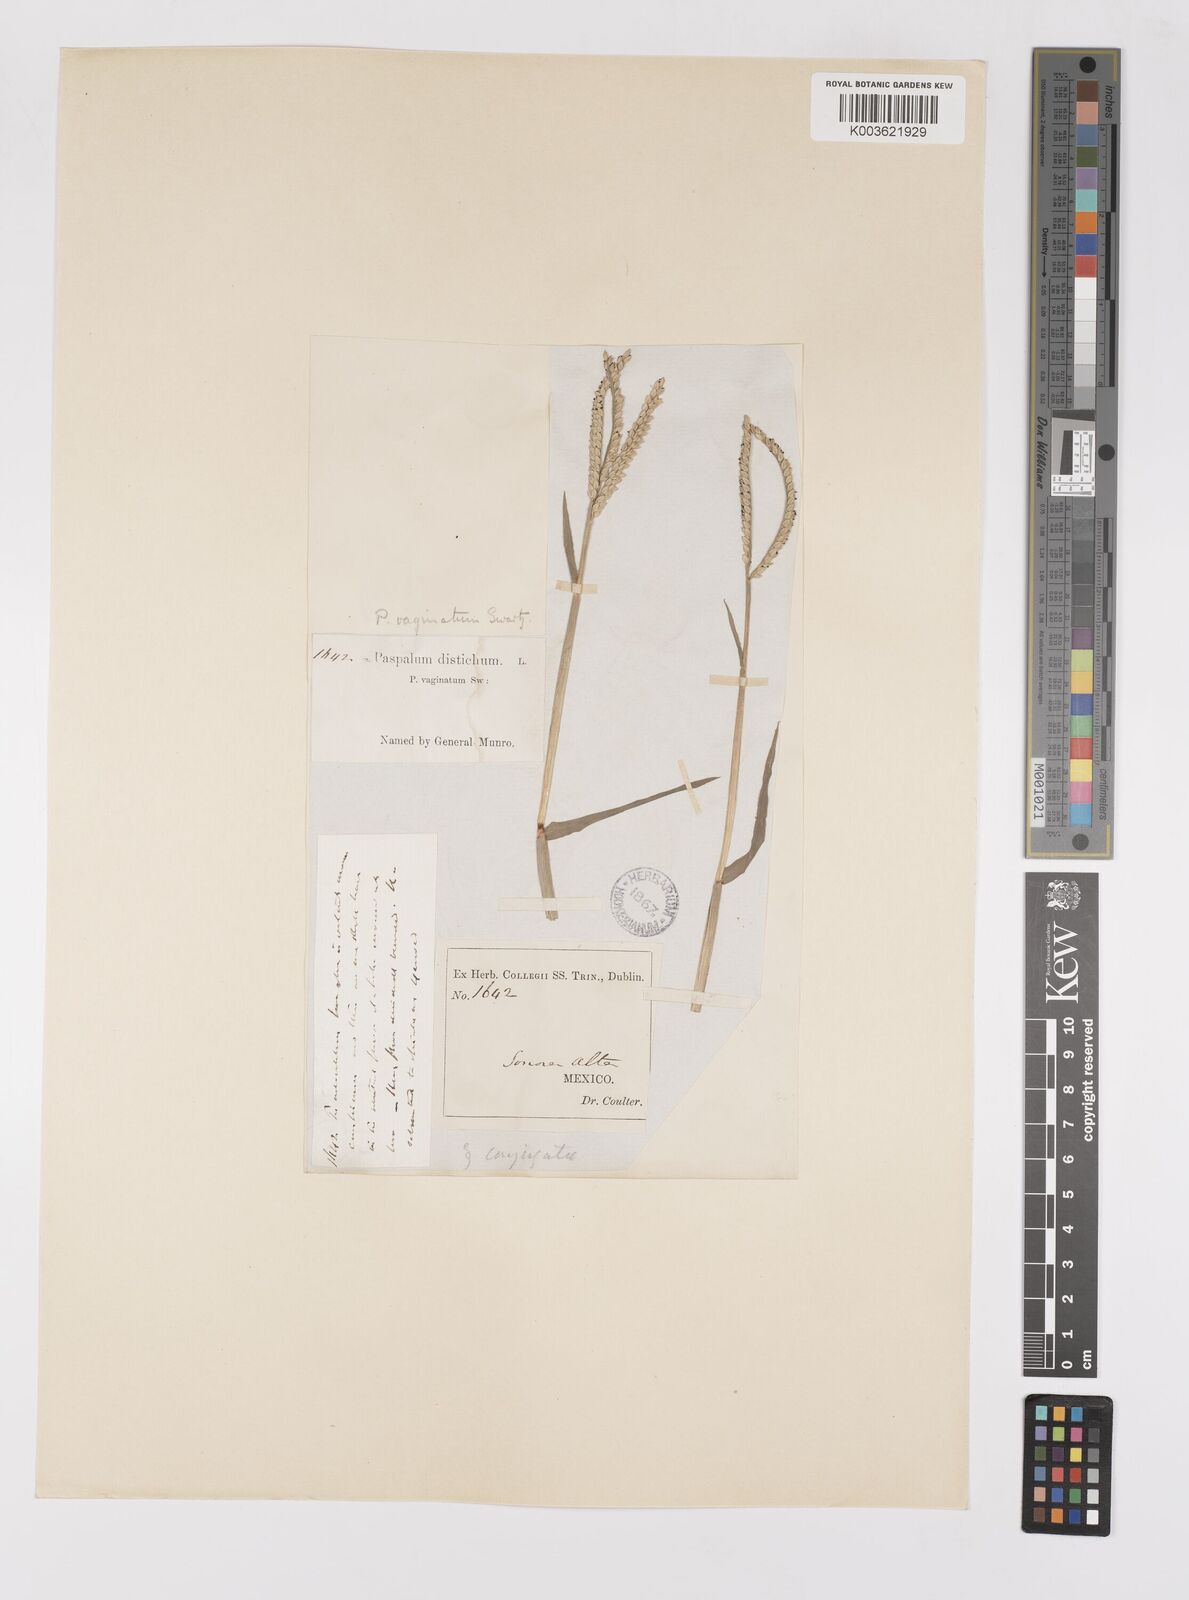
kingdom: Plantae
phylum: Tracheophyta
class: Liliopsida
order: Poales
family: Poaceae
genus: Paspalum
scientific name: Paspalum distichum
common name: Knotgrass
